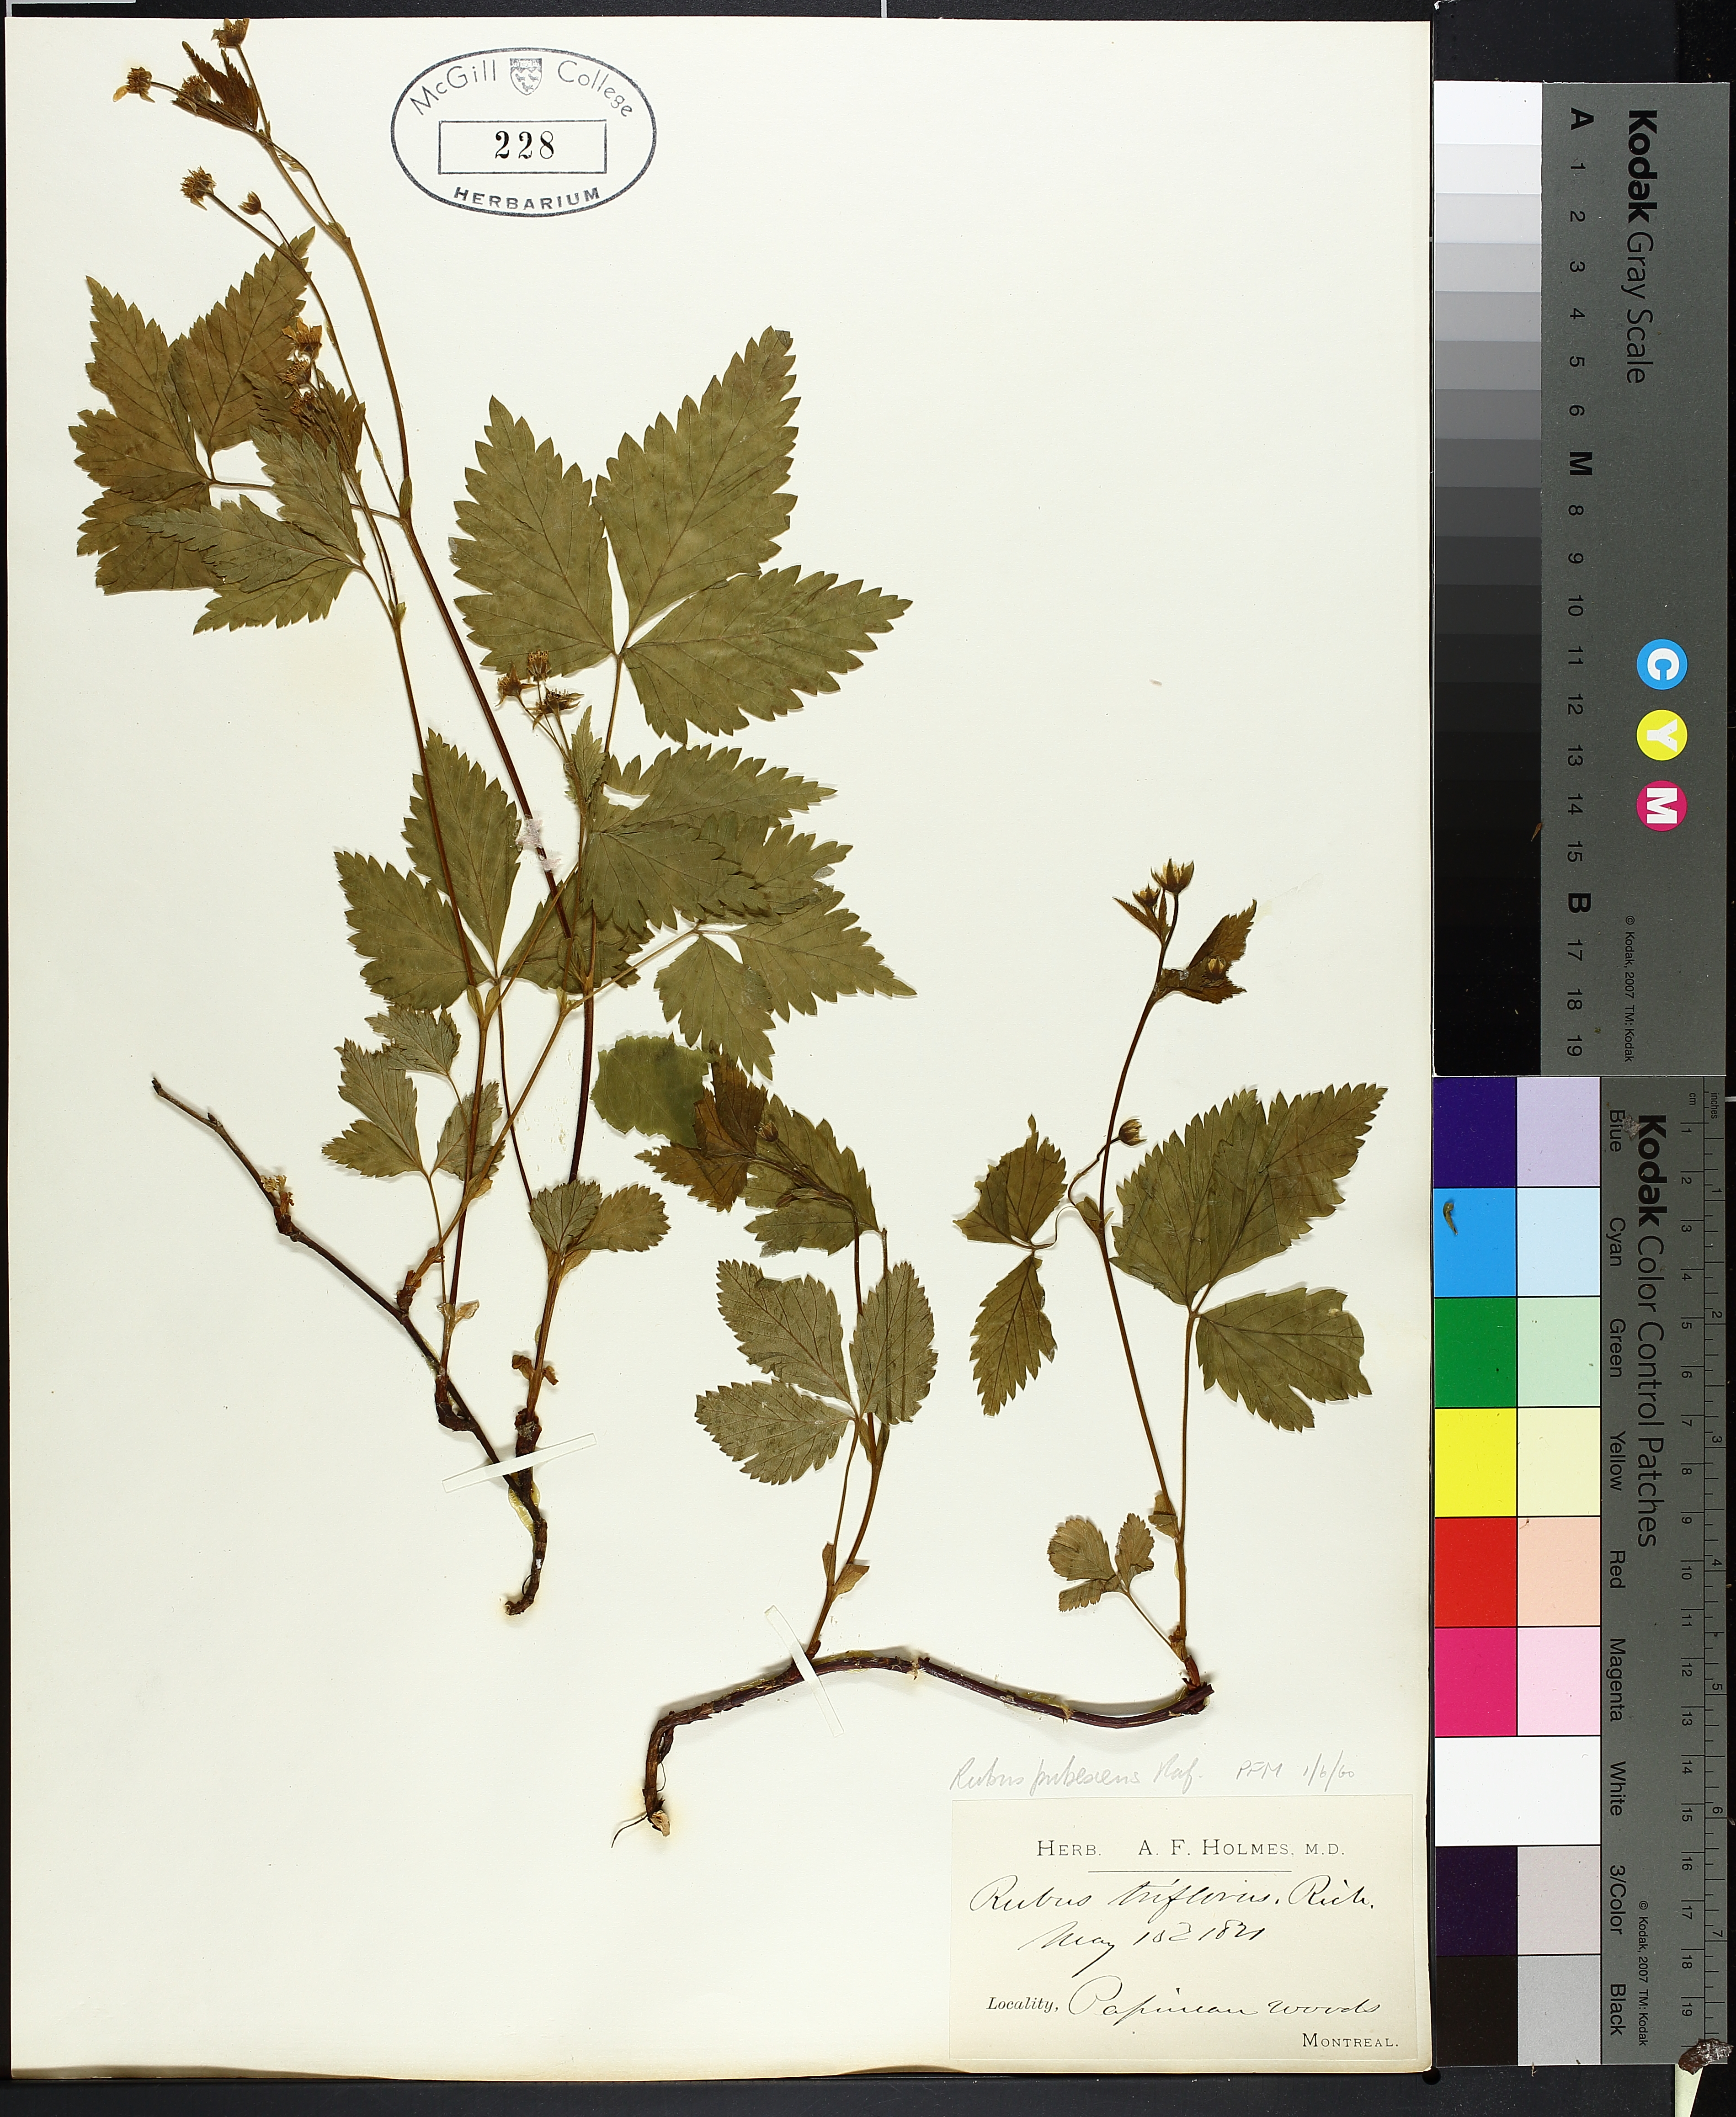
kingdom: Plantae
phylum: Tracheophyta
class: Magnoliopsida
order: Rosales
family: Rosaceae
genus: Rubus
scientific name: Rubus pubescens
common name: Dwarf raspberry
